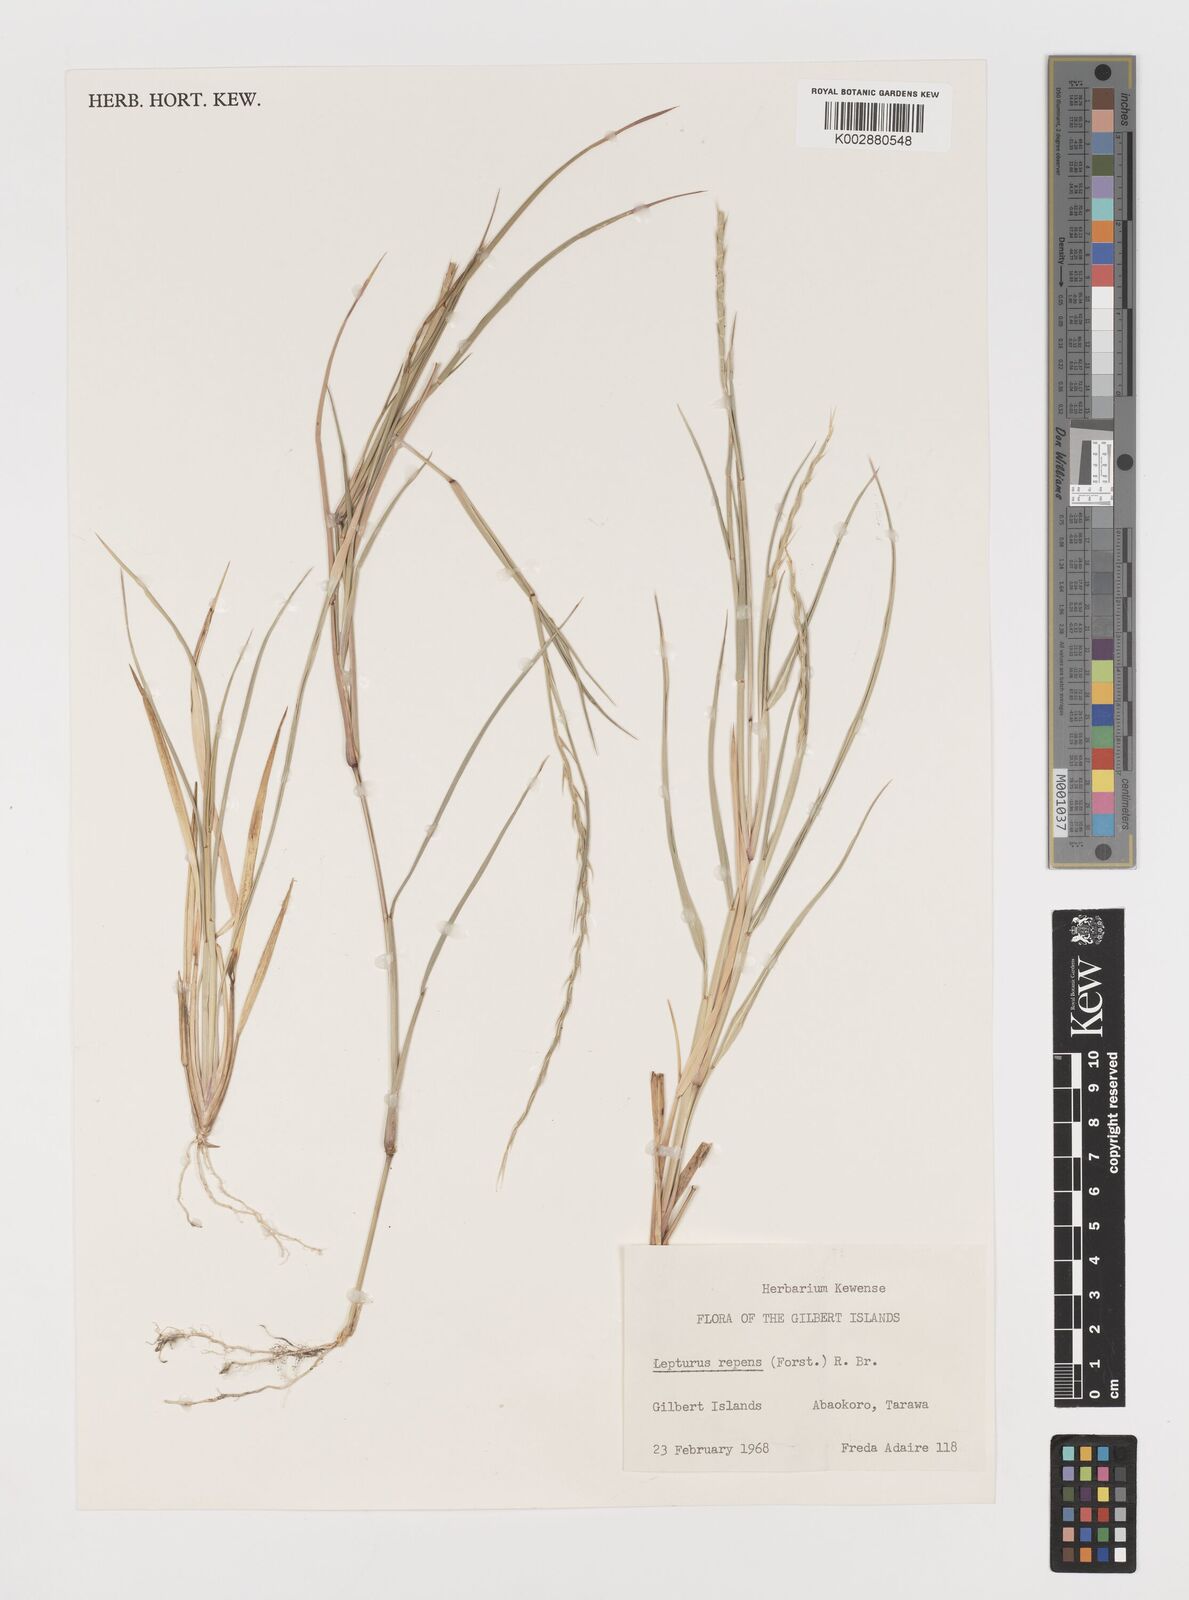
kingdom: Plantae
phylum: Tracheophyta
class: Liliopsida
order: Poales
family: Poaceae
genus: Lepturus
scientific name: Lepturus repens
